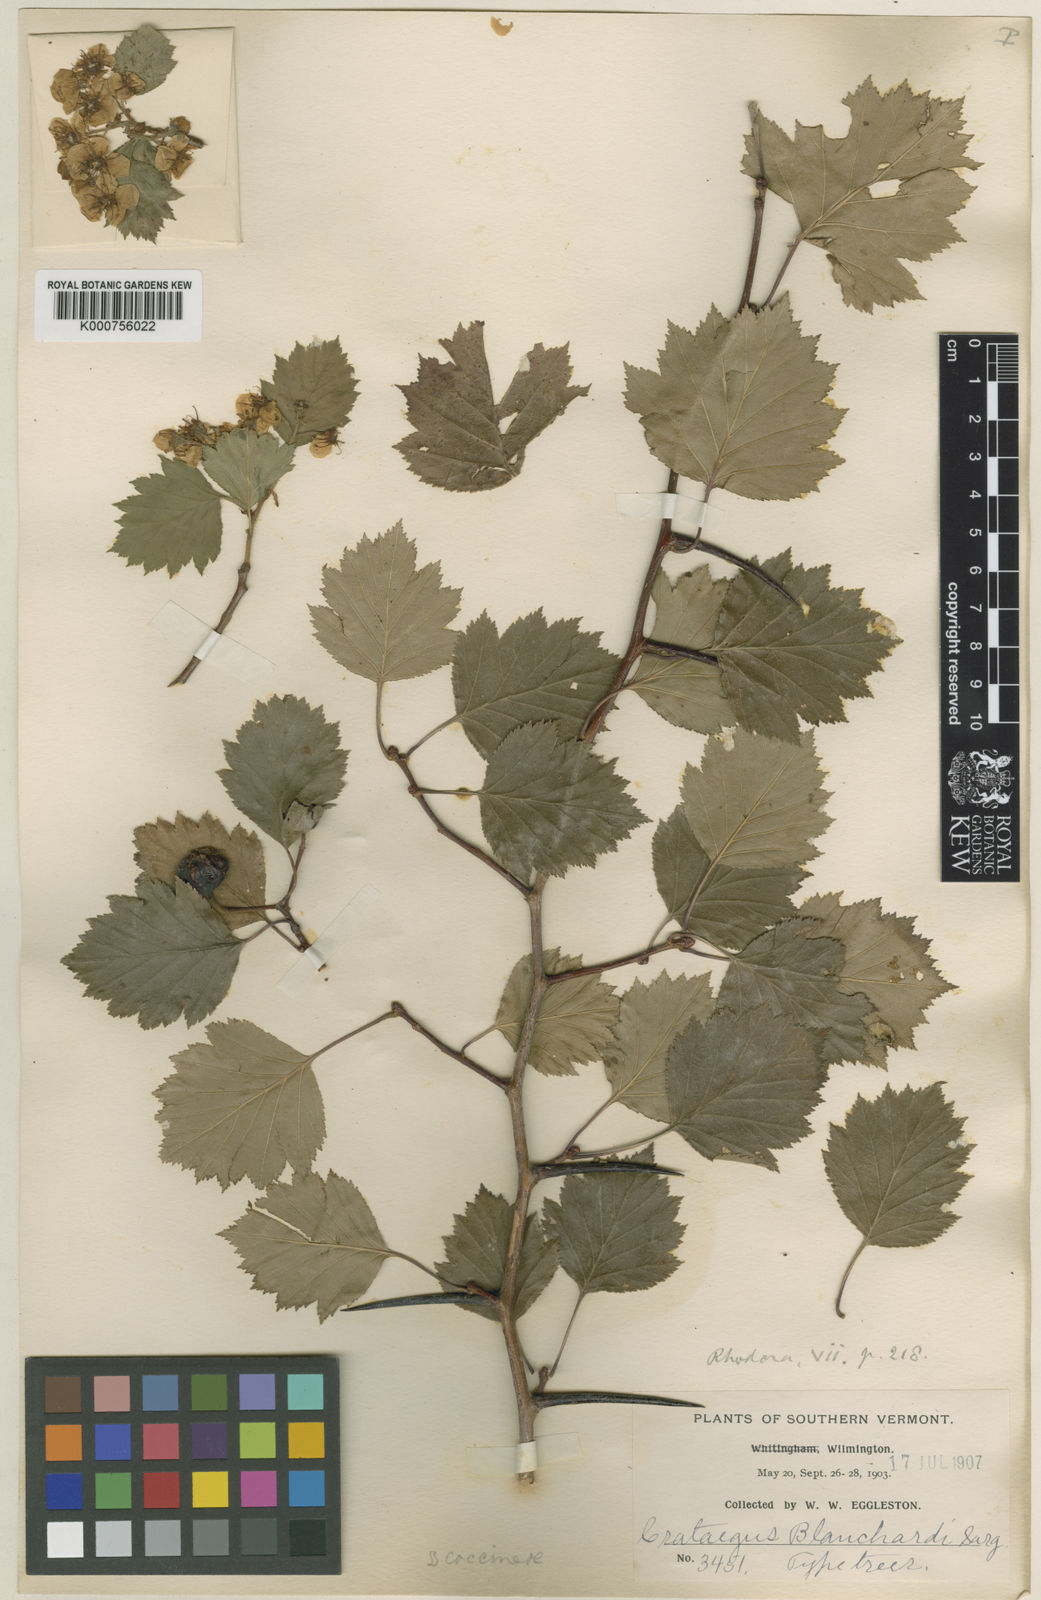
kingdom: Plantae
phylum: Tracheophyta
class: Magnoliopsida
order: Rosales
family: Rosaceae
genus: Crataegus
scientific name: Crataegus chrysocarpa
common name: Fire-berry hawthorn
